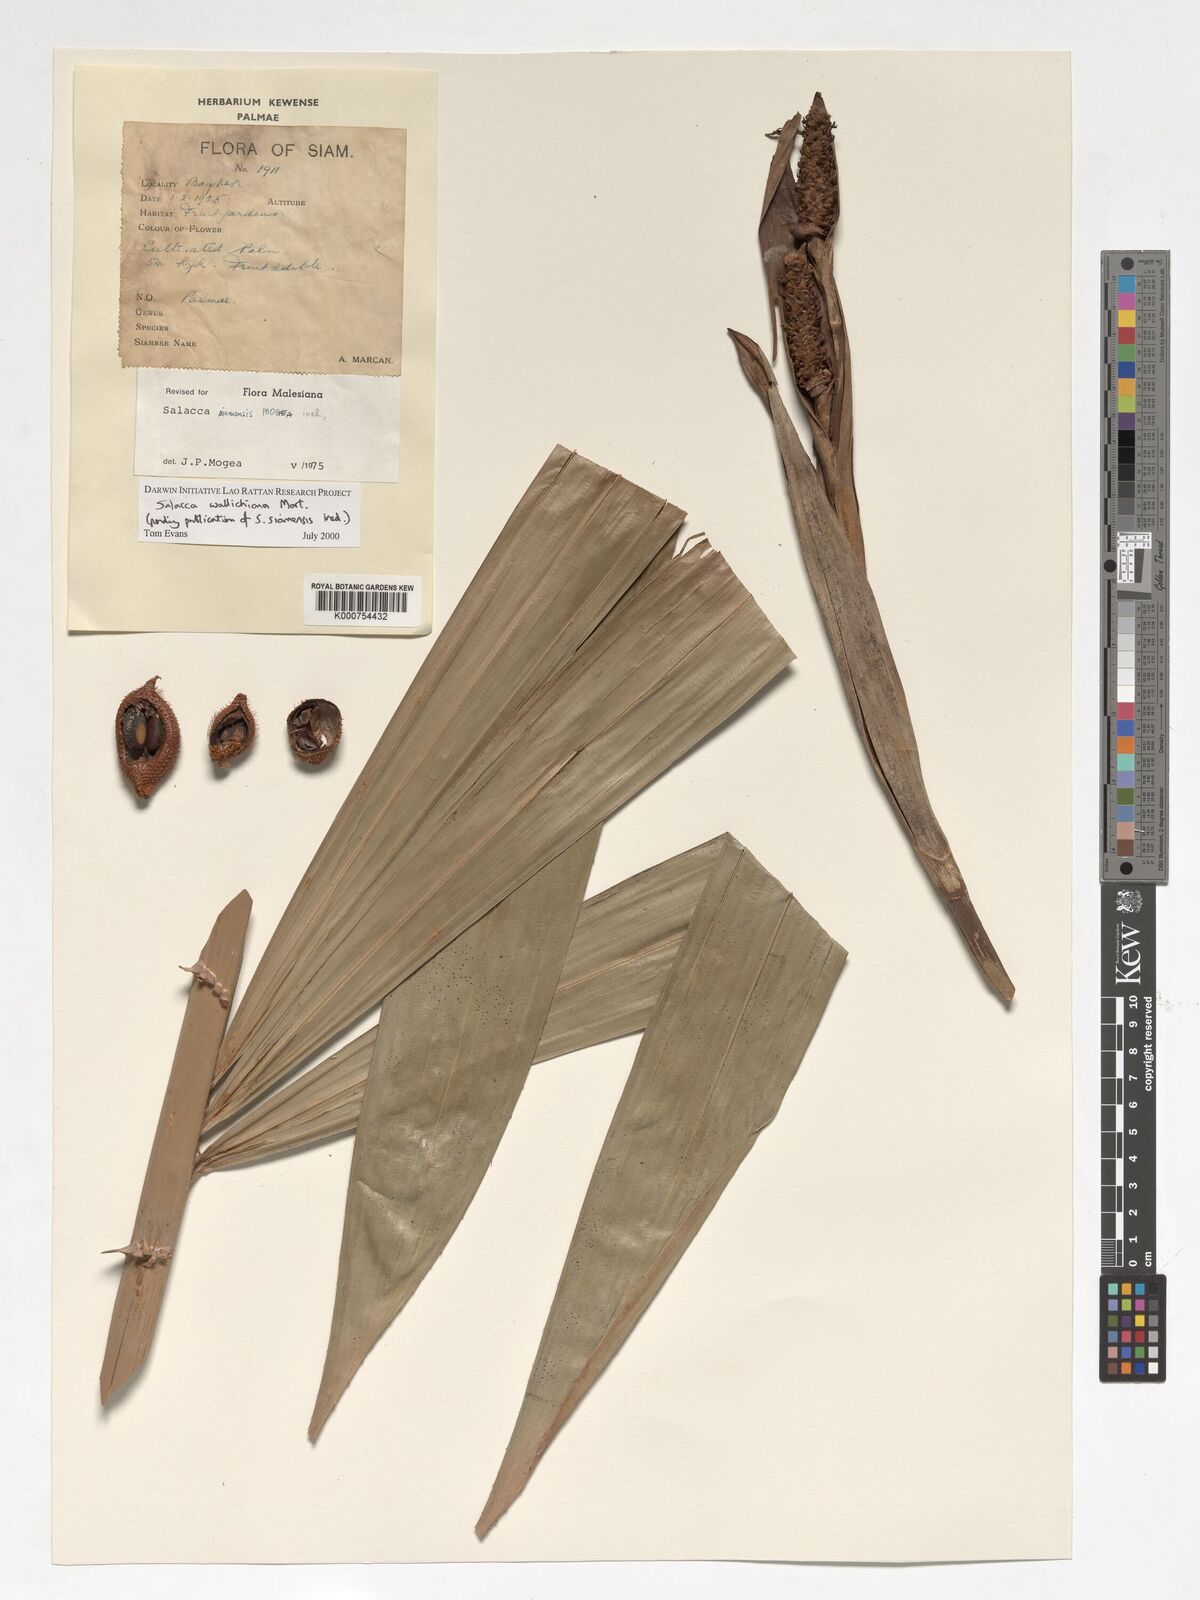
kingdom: Plantae
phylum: Tracheophyta
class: Liliopsida
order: Arecales
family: Arecaceae
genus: Salacca
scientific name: Salacca wallichiana
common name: Rakum palm
